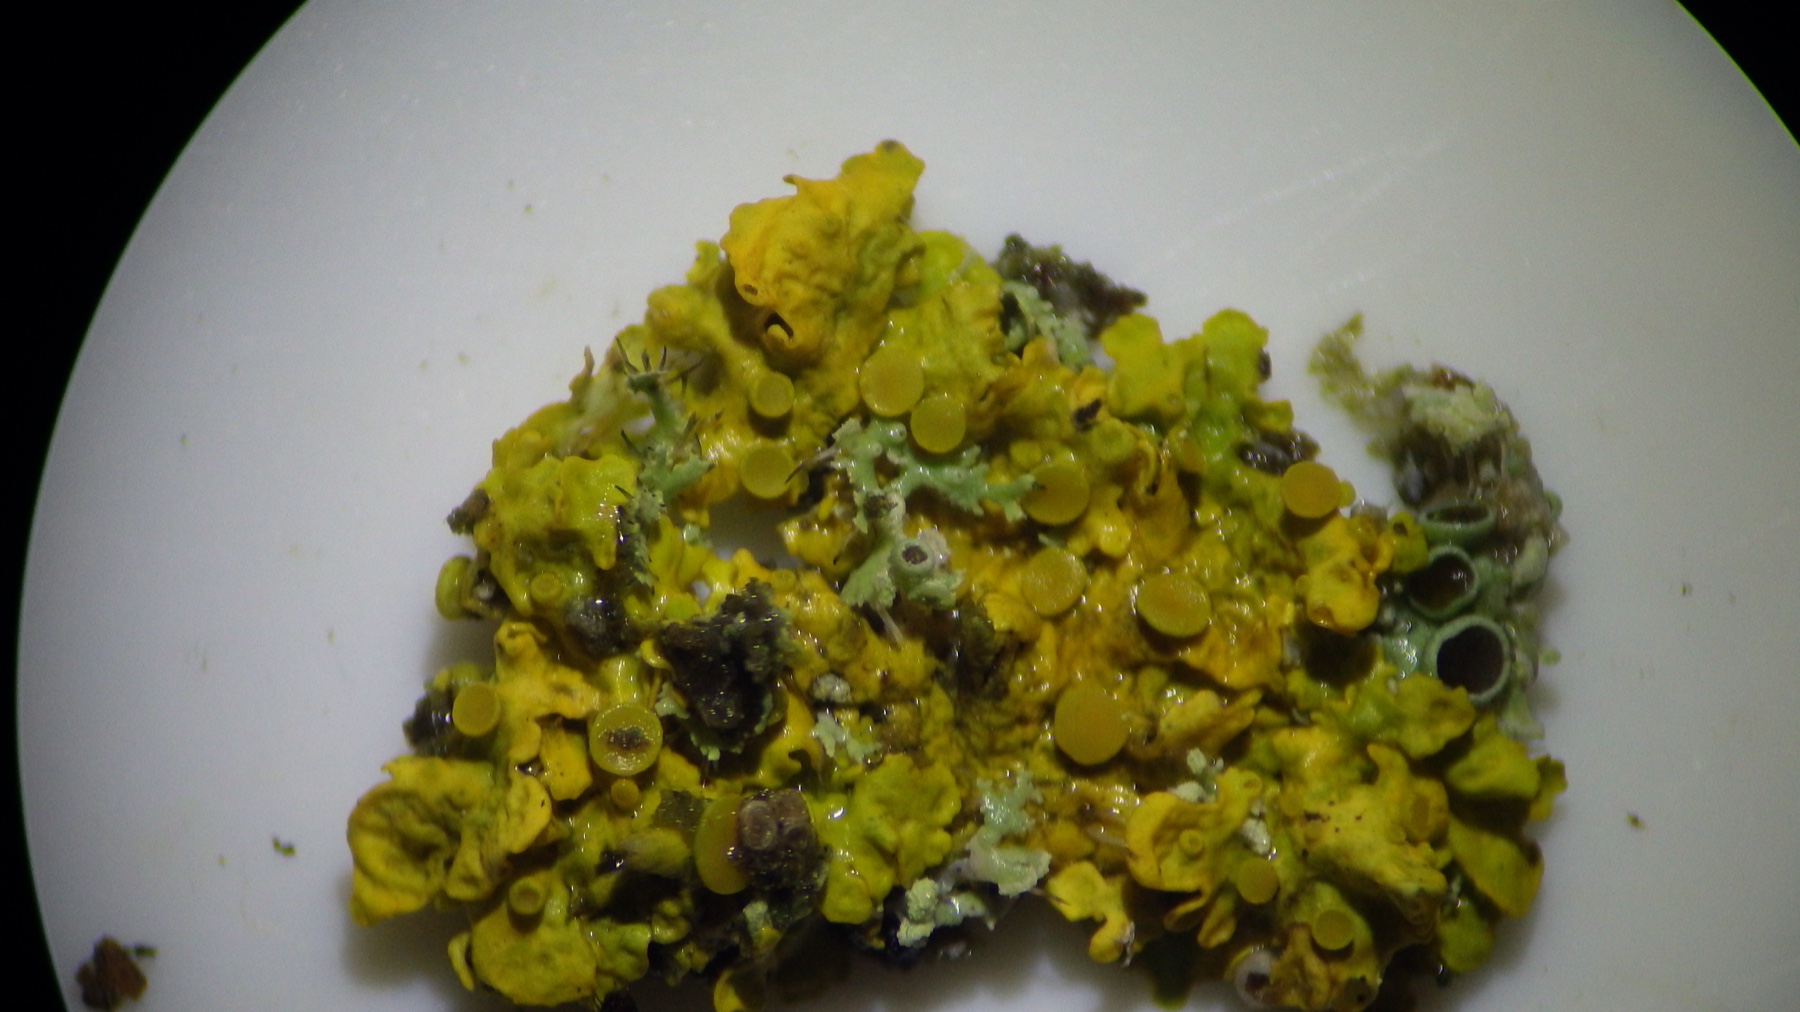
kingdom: Fungi
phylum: Ascomycota
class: Lecanoromycetes
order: Teloschistales
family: Teloschistaceae
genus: Xanthoria
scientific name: Xanthoria parietina
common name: almindelig væggelav
